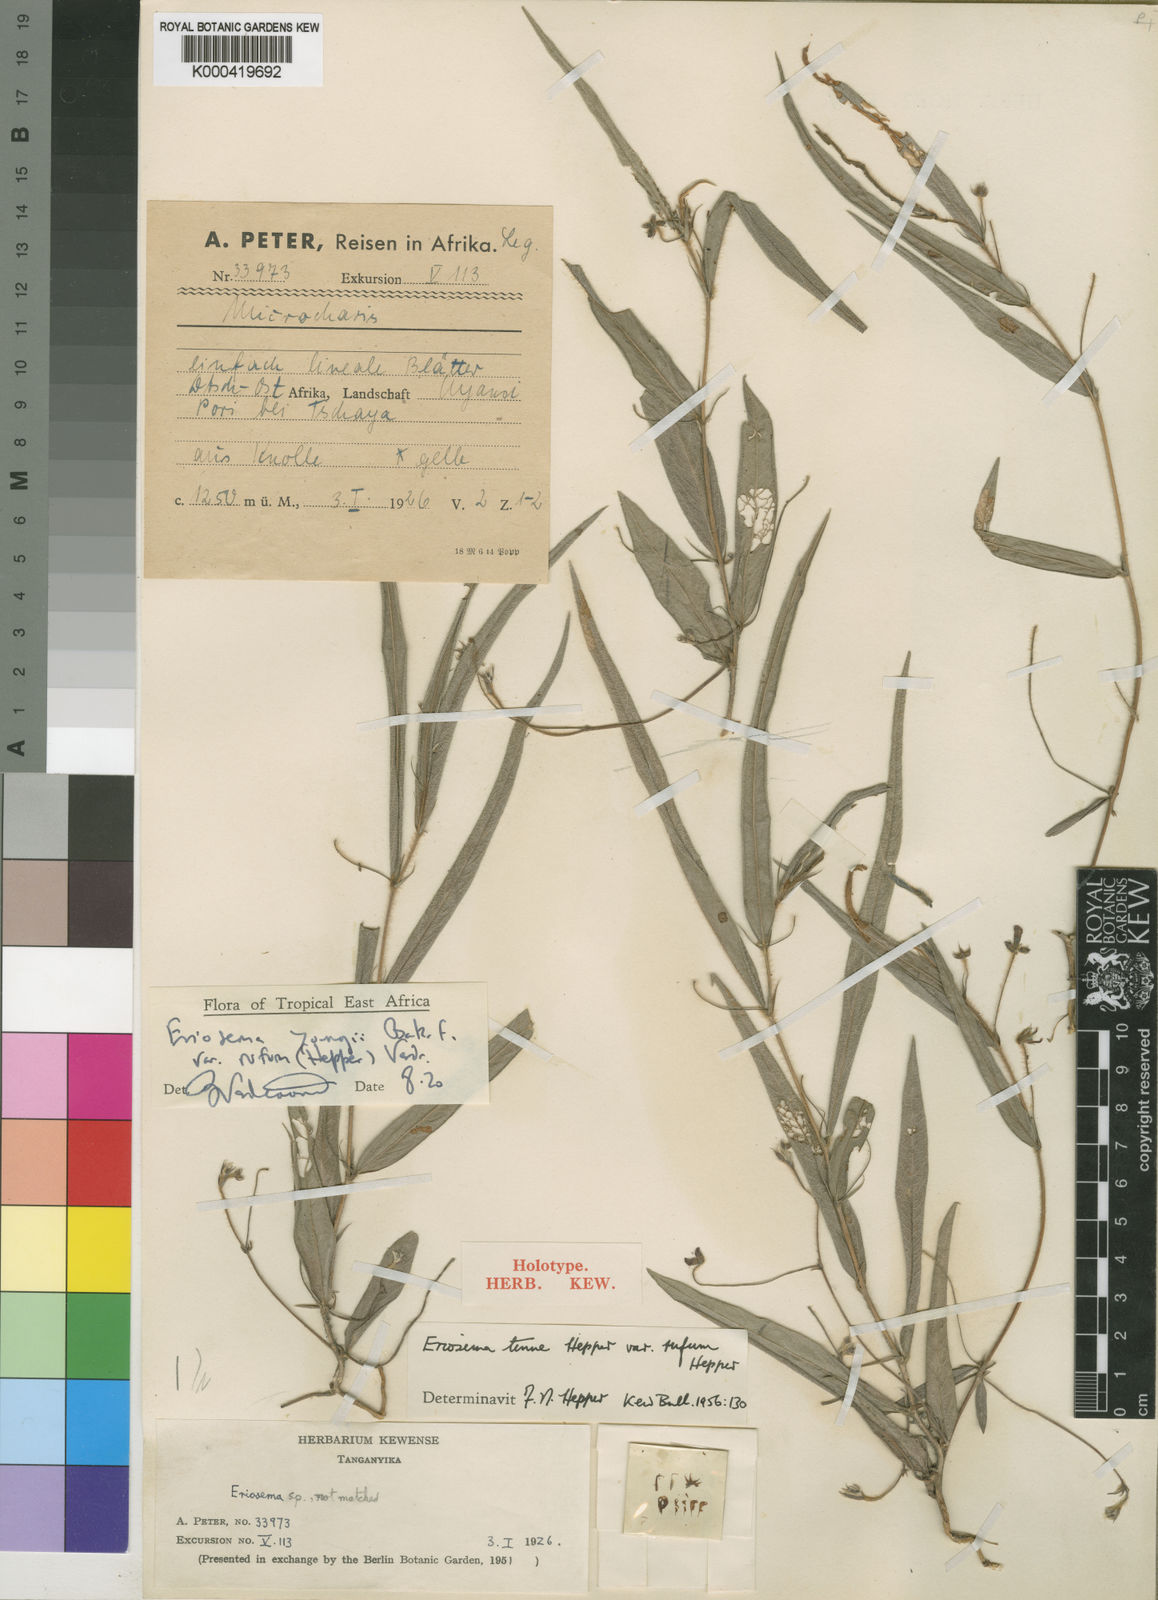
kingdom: Plantae
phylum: Tracheophyta
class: Magnoliopsida
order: Fabales
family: Fabaceae
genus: Eriosema
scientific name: Eriosema youngii
